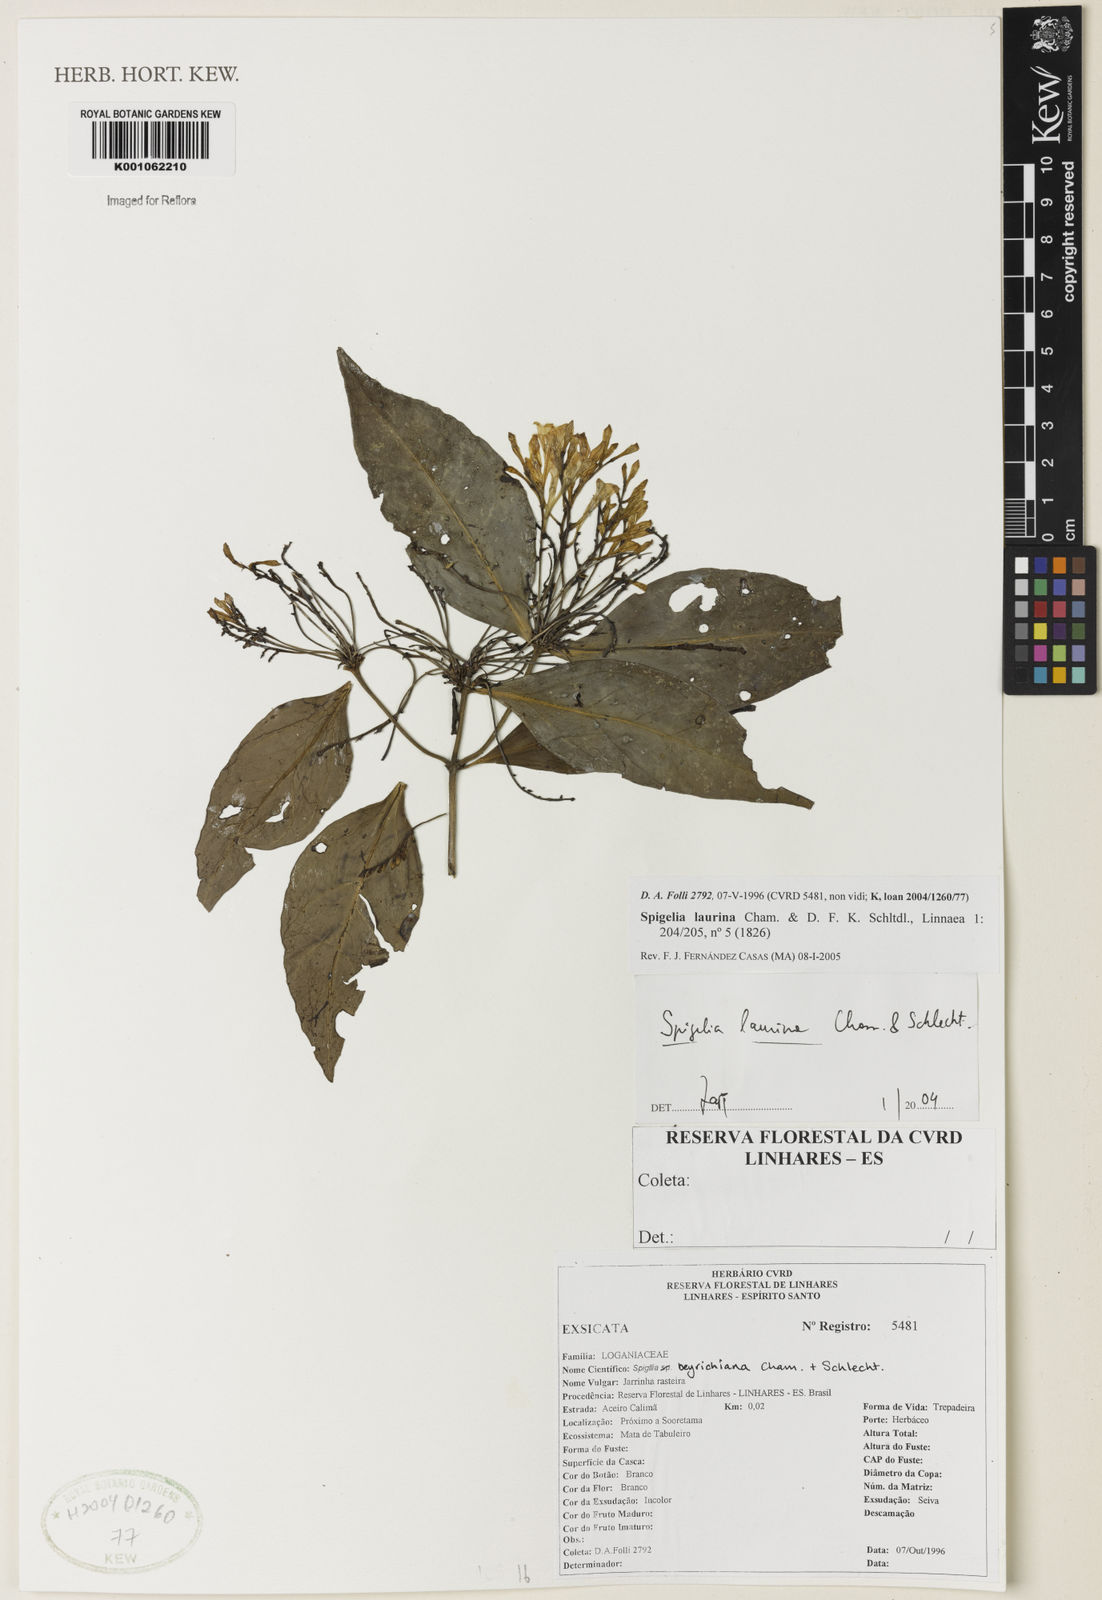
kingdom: Plantae
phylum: Tracheophyta
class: Magnoliopsida
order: Gentianales
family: Loganiaceae
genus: Spigelia
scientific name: Spigelia laurina
